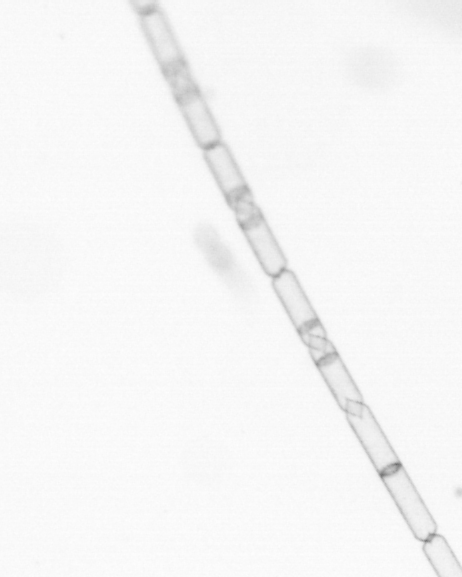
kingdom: Chromista
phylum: Ochrophyta
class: Bacillariophyceae
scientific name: Bacillariophyceae
